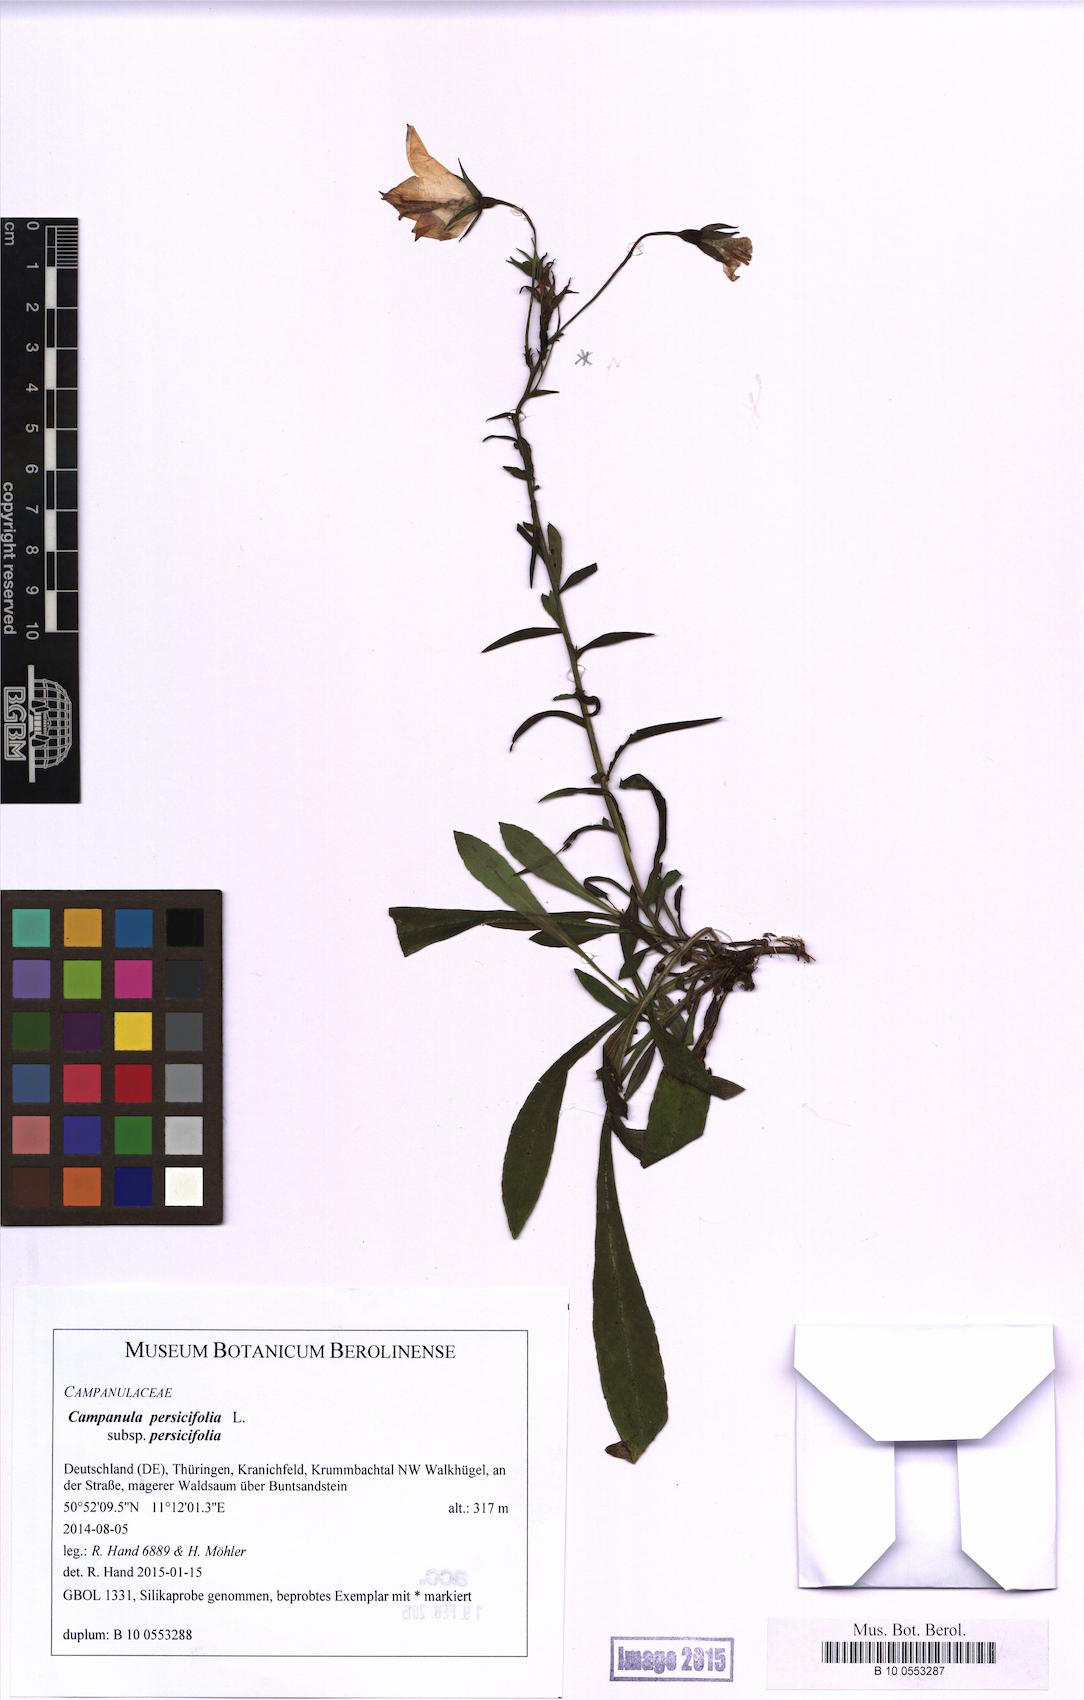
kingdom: Plantae
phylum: Tracheophyta
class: Magnoliopsida
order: Asterales
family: Campanulaceae
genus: Campanula
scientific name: Campanula persicifolia
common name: Peach-leaved bellflower
